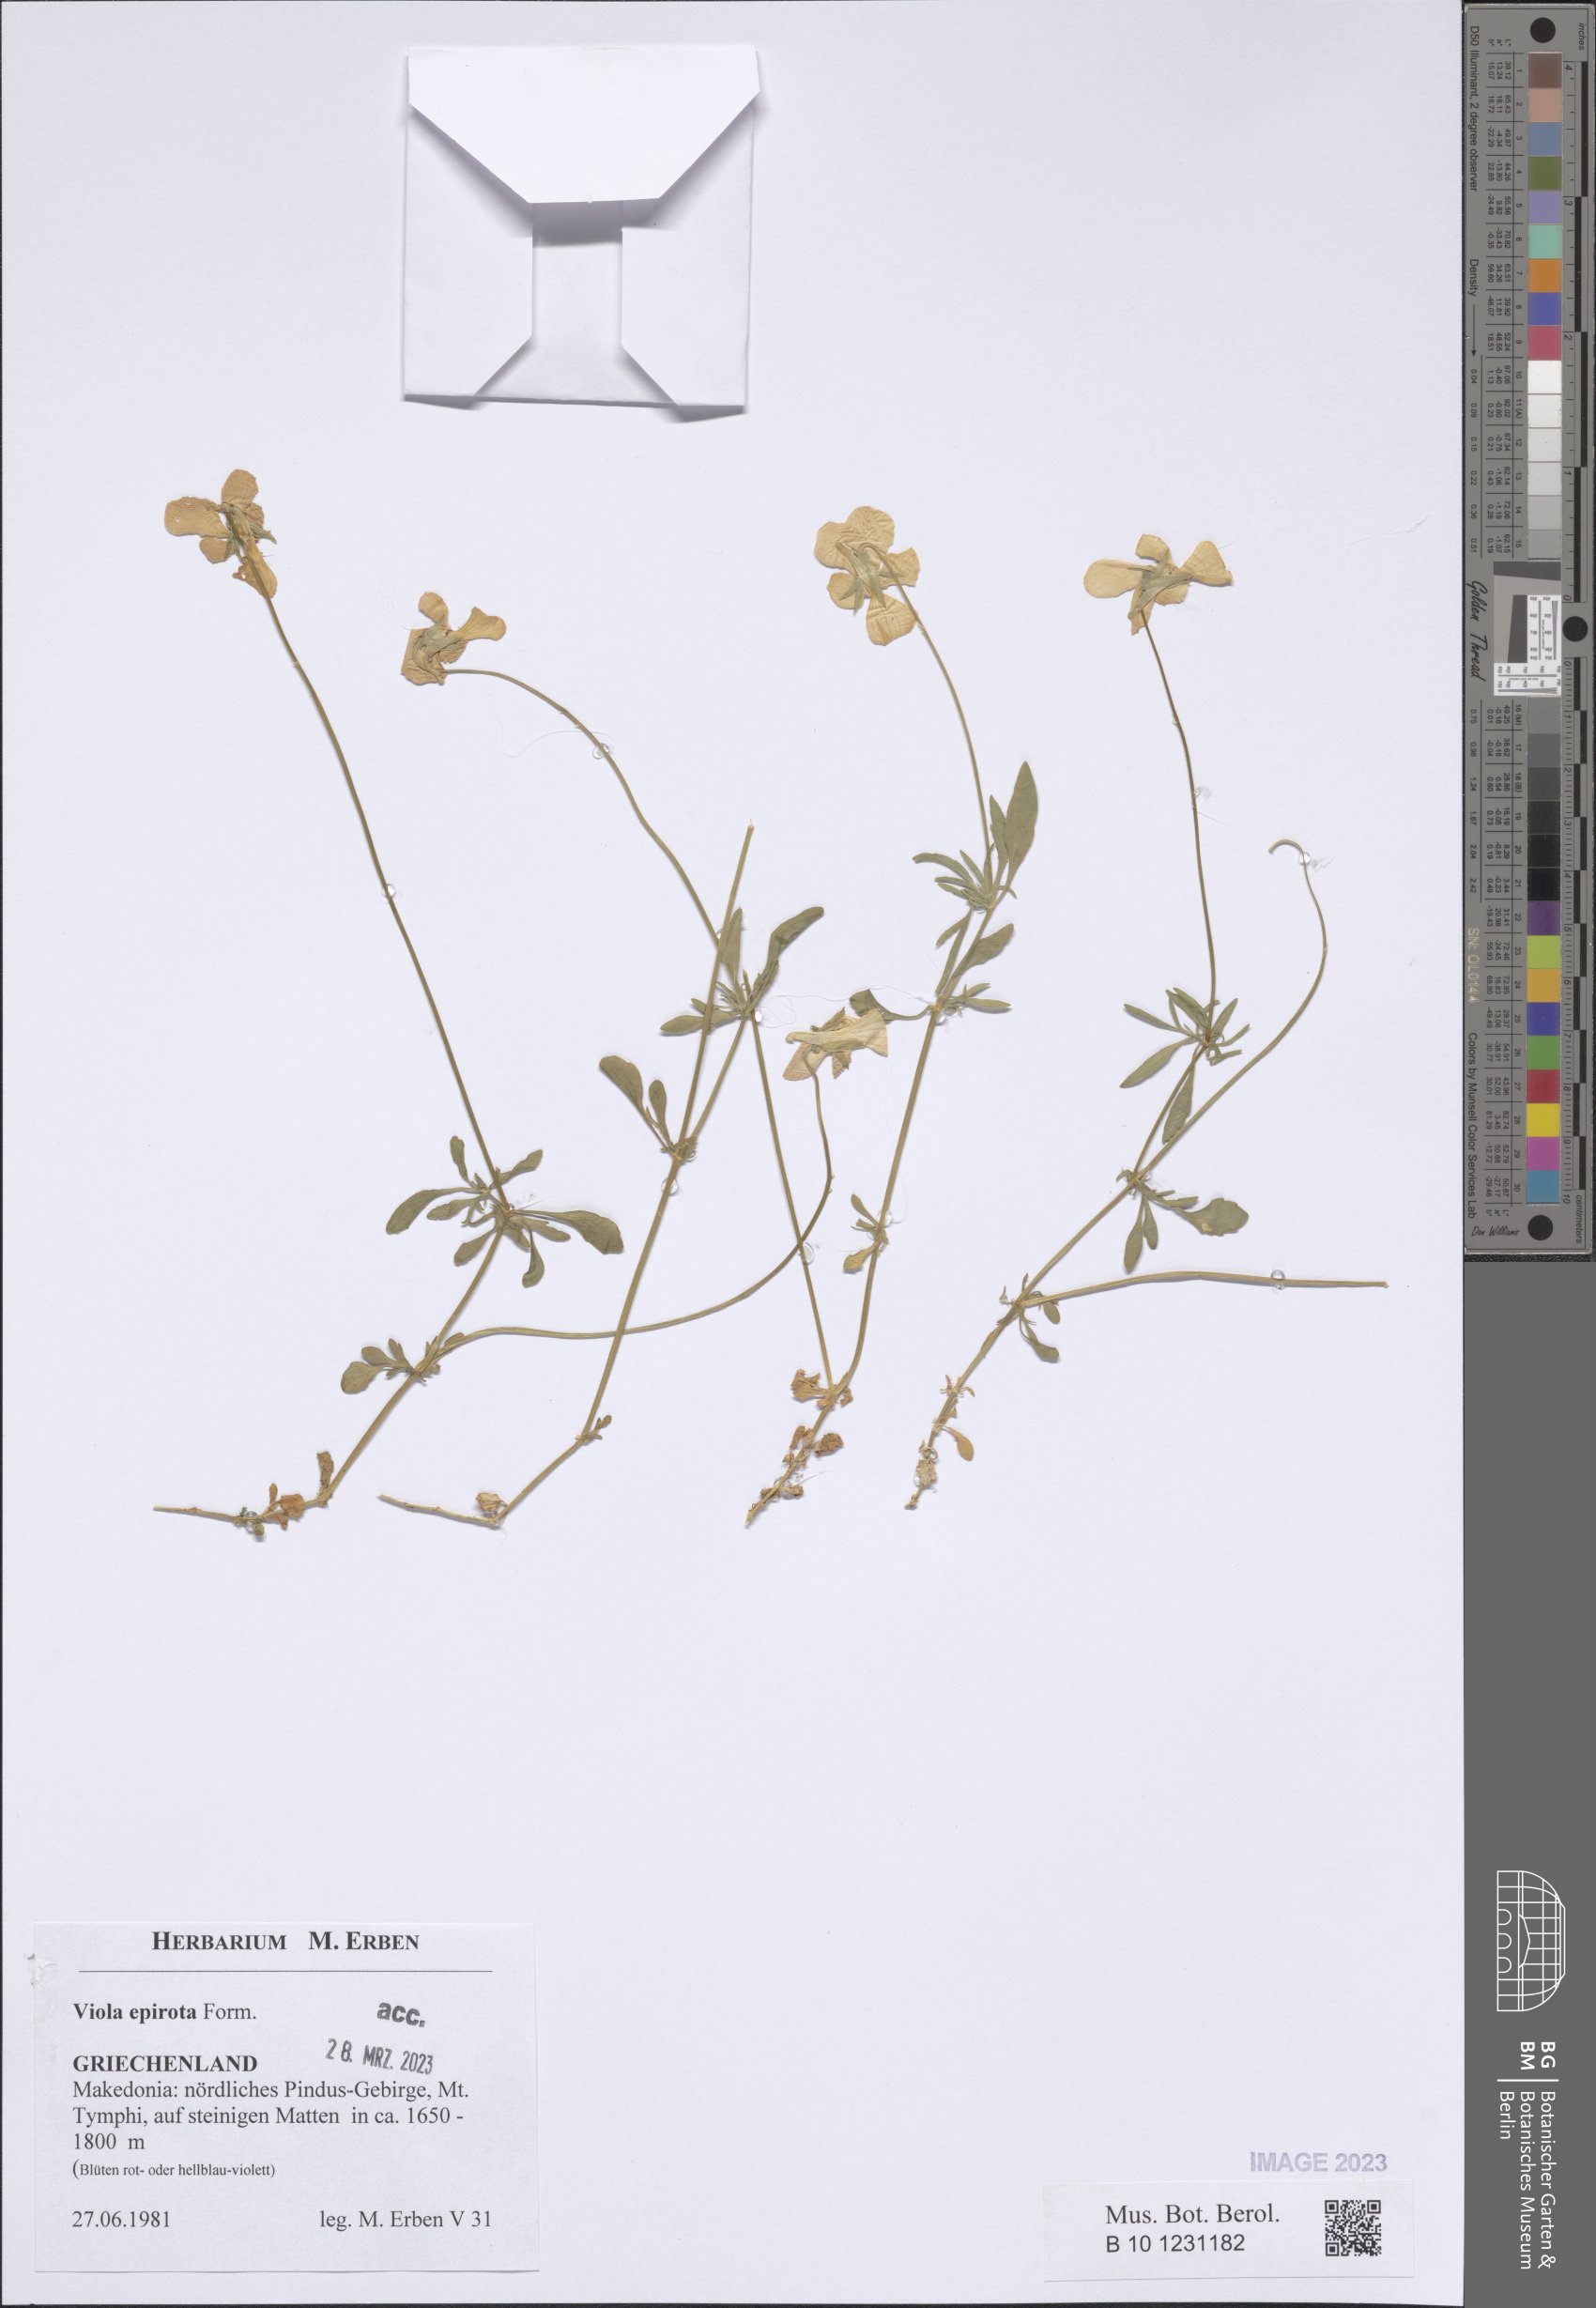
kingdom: Plantae
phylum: Tracheophyta
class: Magnoliopsida
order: Malpighiales
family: Violaceae
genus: Viola
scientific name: Viola epirota
